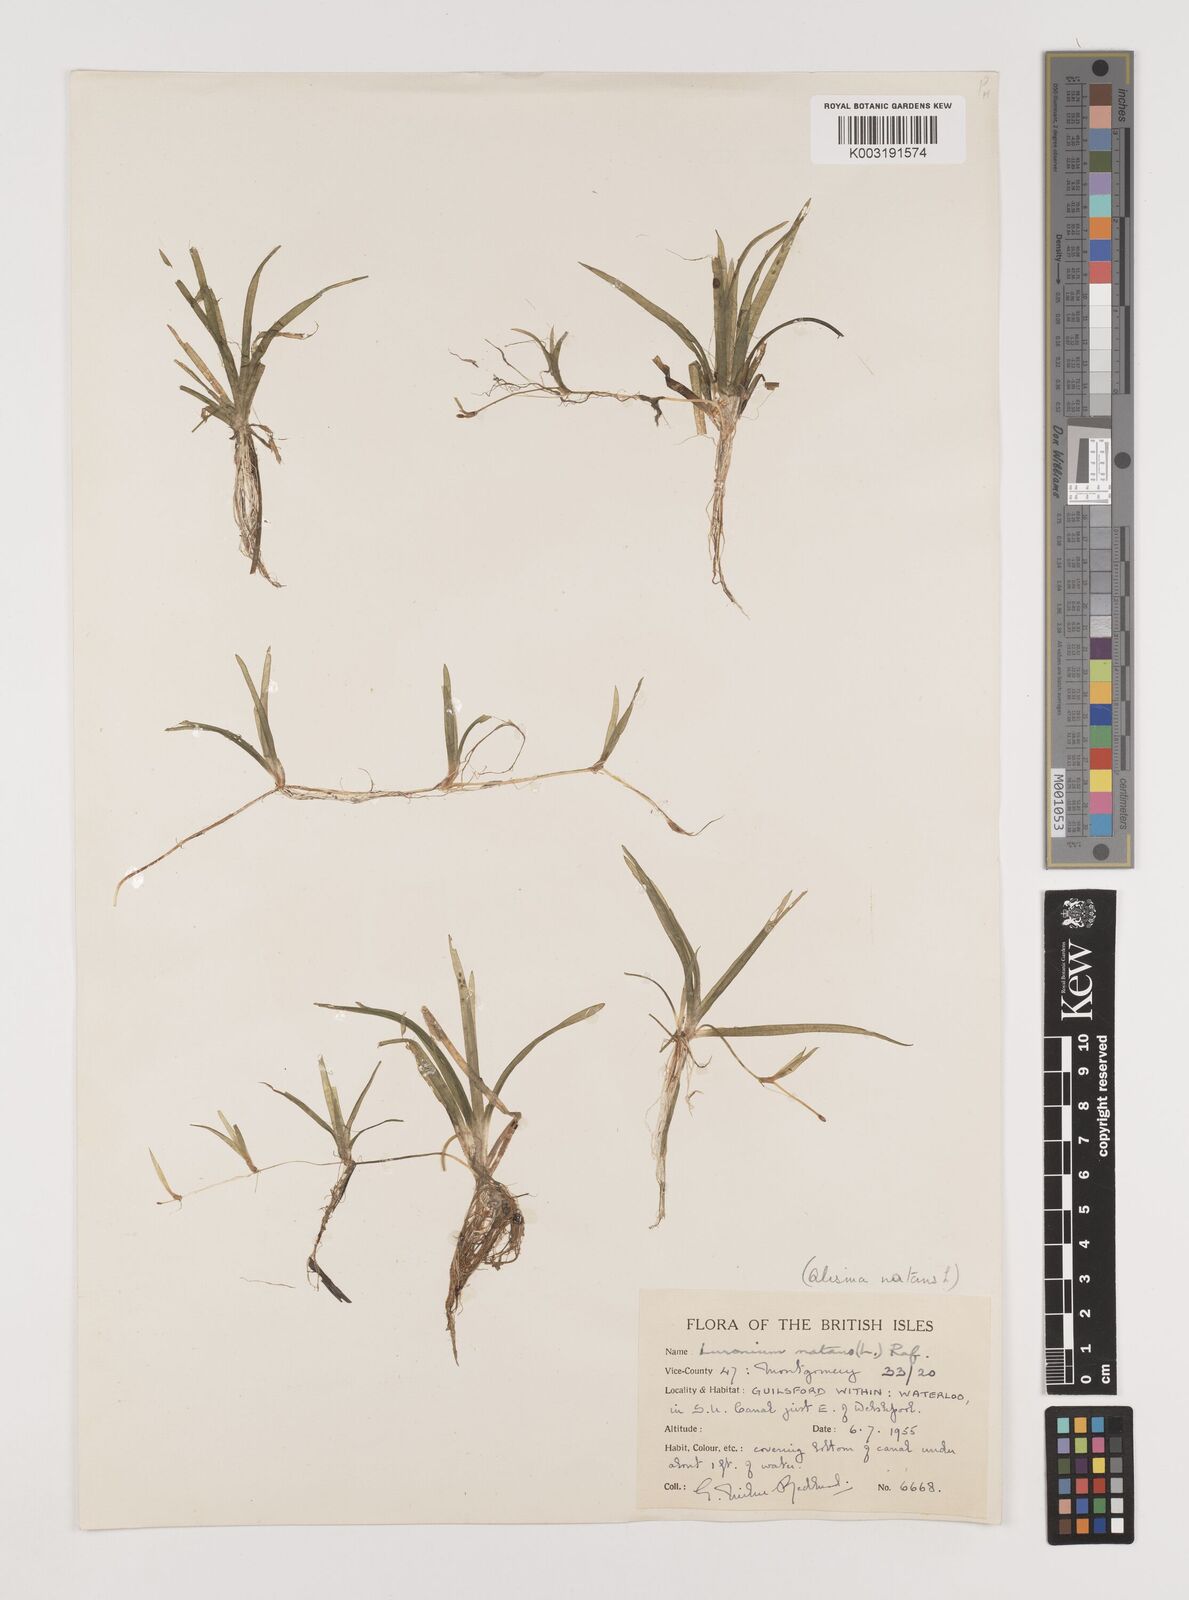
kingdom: Plantae
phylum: Tracheophyta
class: Liliopsida
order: Alismatales
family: Alismataceae
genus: Luronium
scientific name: Luronium natans
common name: Floating water-plantain
